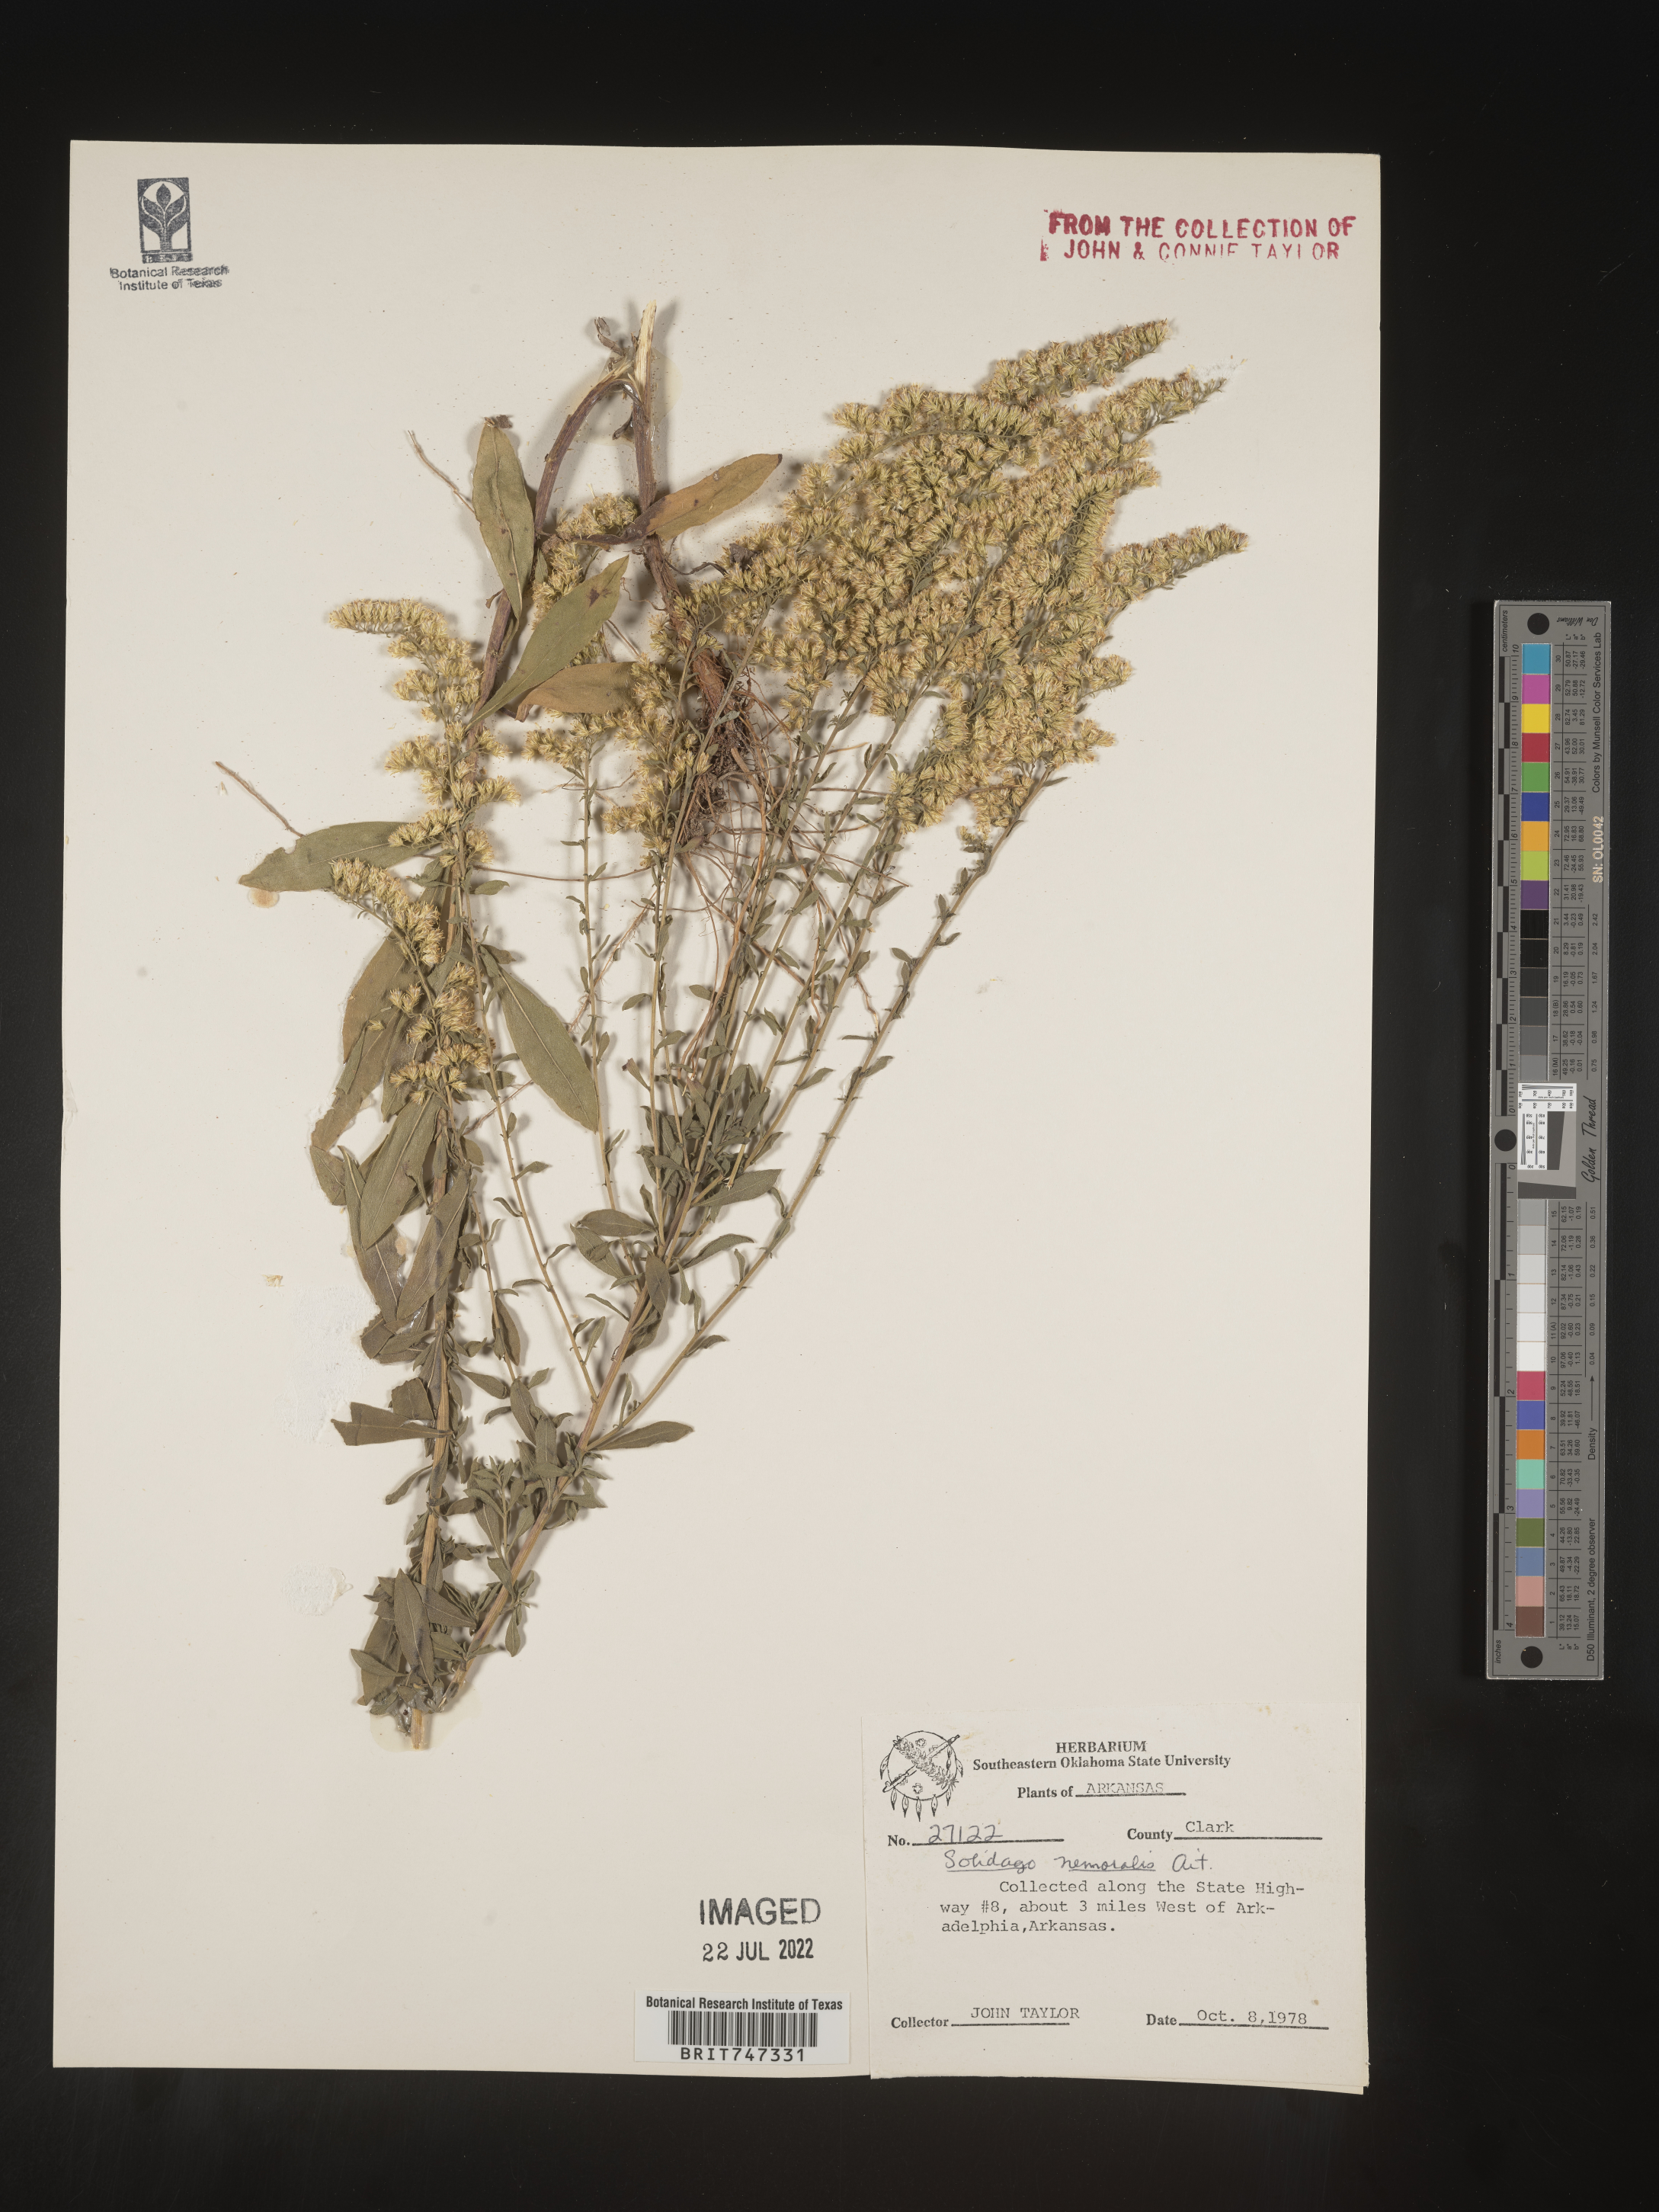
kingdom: Plantae
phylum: Tracheophyta
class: Magnoliopsida
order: Asterales
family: Asteraceae
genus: Solidago
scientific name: Solidago nemoralis
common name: Grey goldenrod
